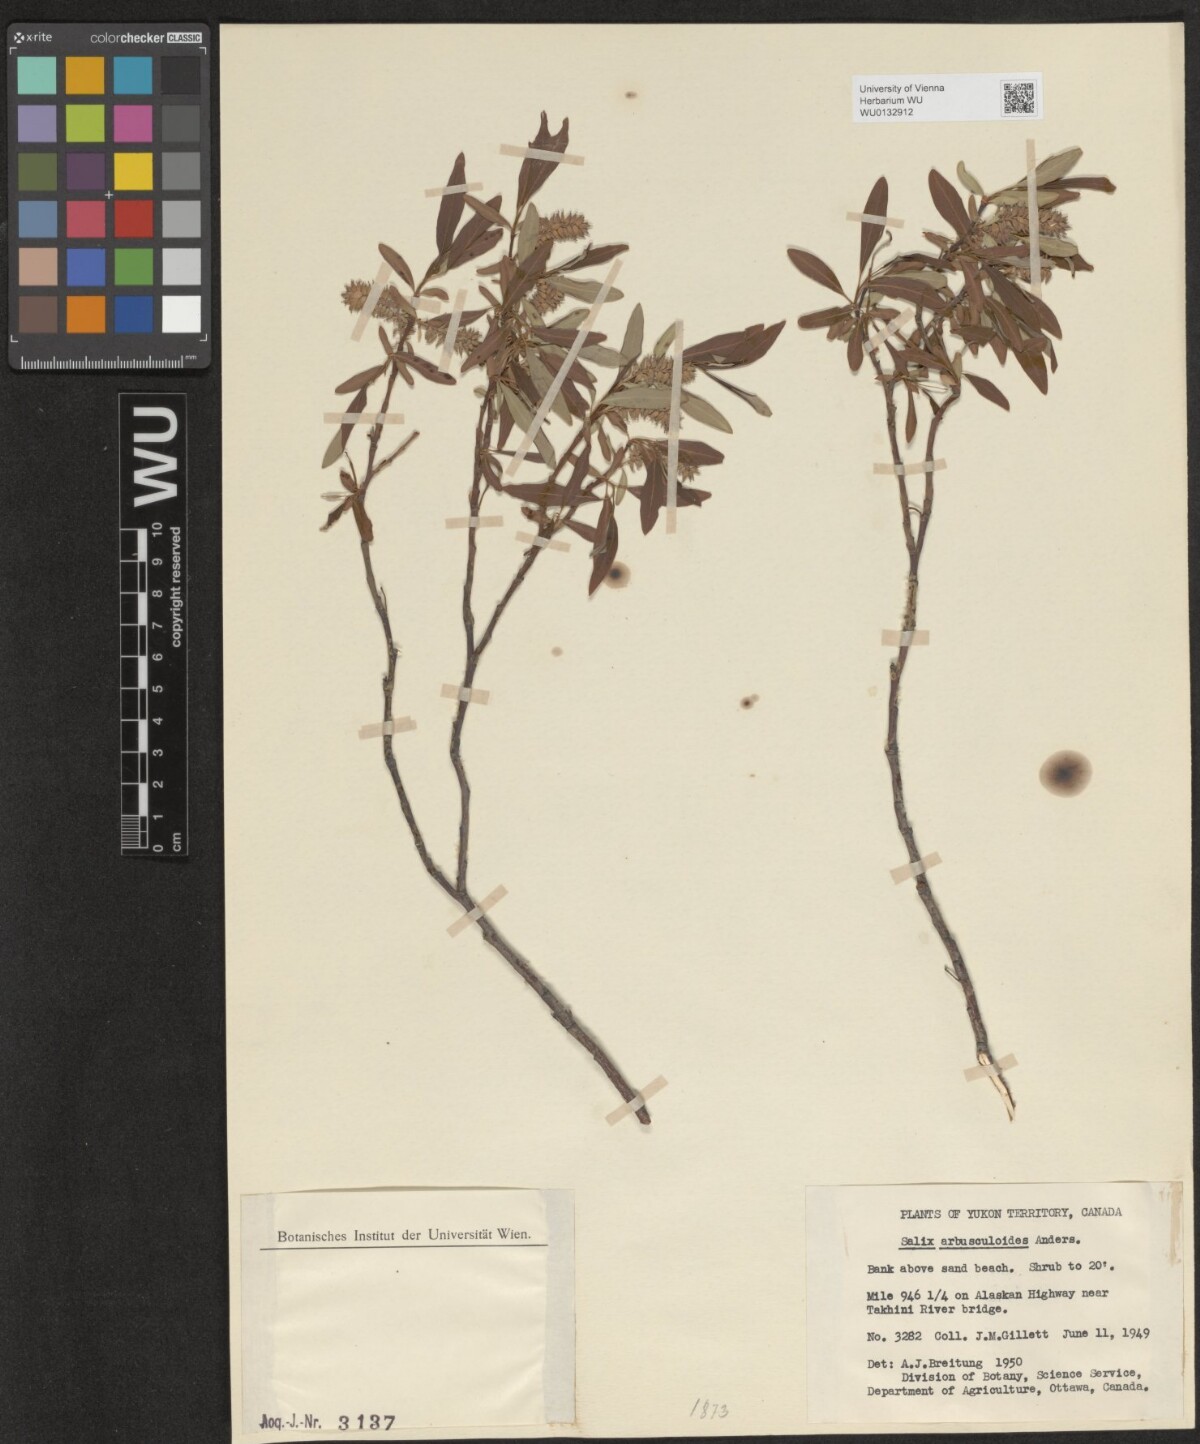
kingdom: Plantae
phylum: Tracheophyta
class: Magnoliopsida
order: Malpighiales
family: Salicaceae
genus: Salix
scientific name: Salix arbusculoides
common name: Little-tree willow
